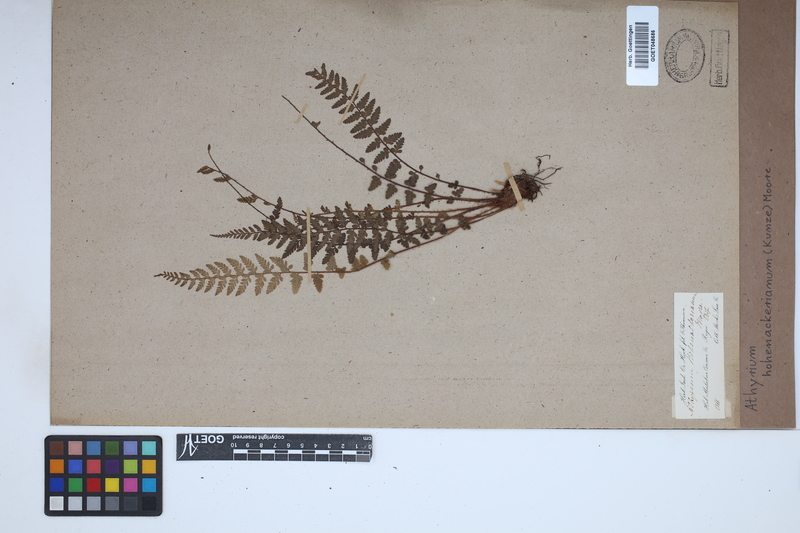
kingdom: Plantae
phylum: Tracheophyta
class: Polypodiopsida
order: Polypodiales
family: Athyriaceae
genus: Athyrium
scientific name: Athyrium hohenackerianum
